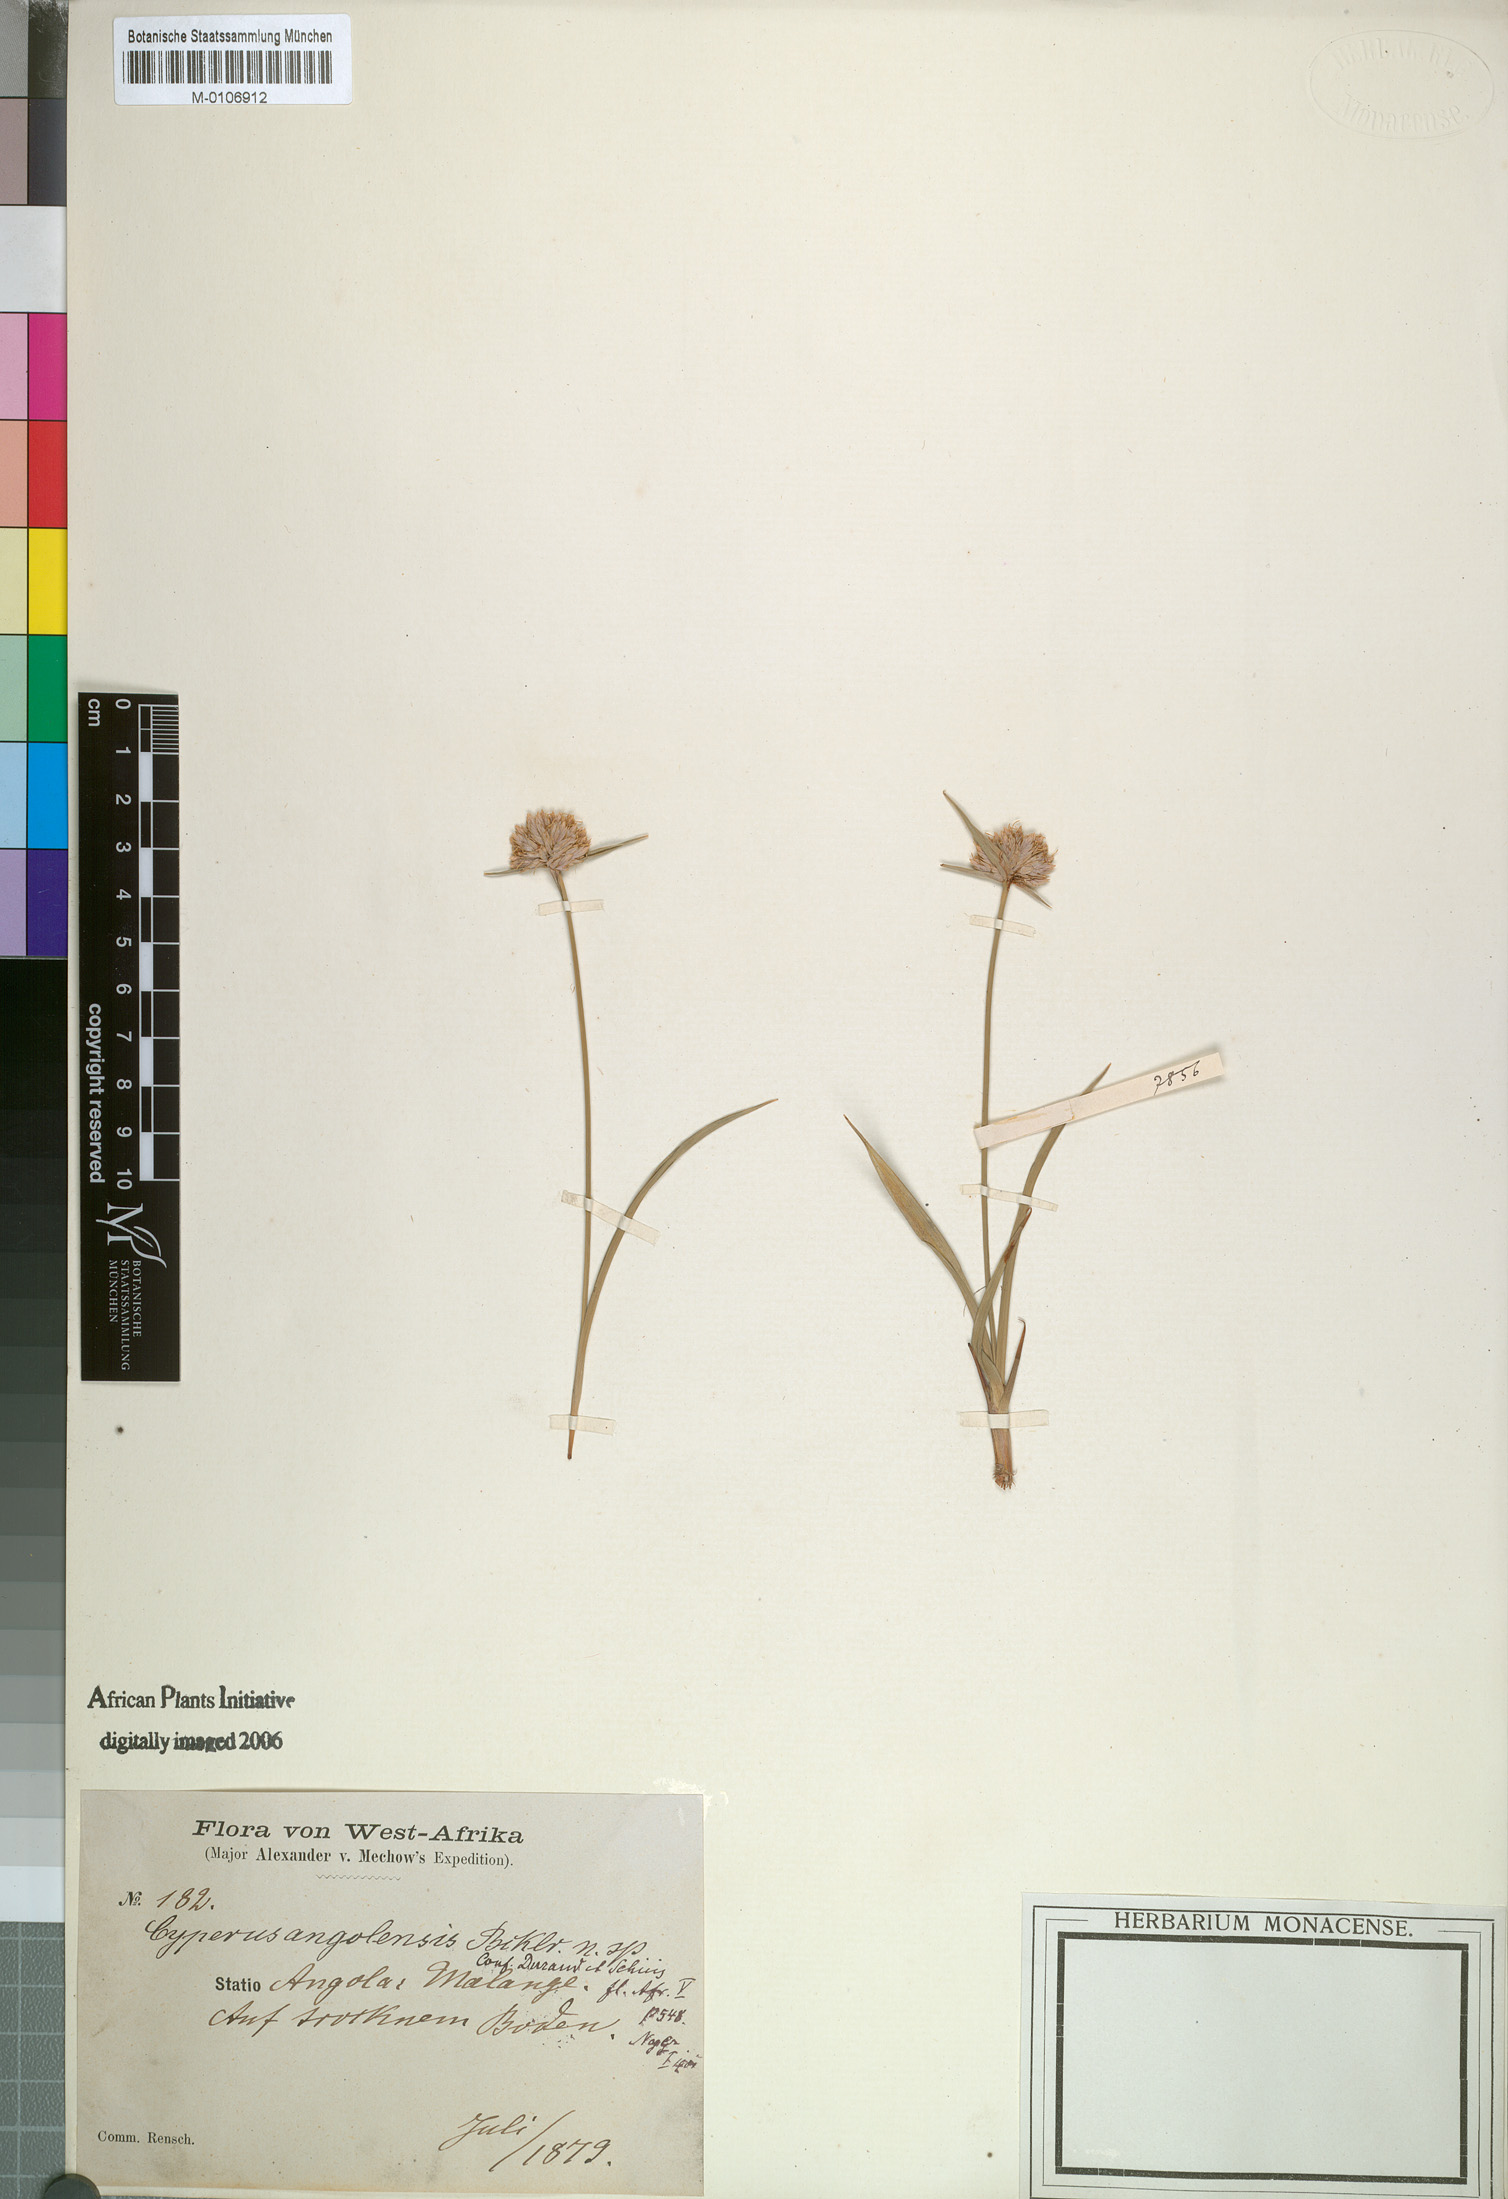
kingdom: Plantae
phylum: Tracheophyta
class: Liliopsida
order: Poales
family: Cyperaceae
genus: Cyperus
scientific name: Cyperus angolensis
